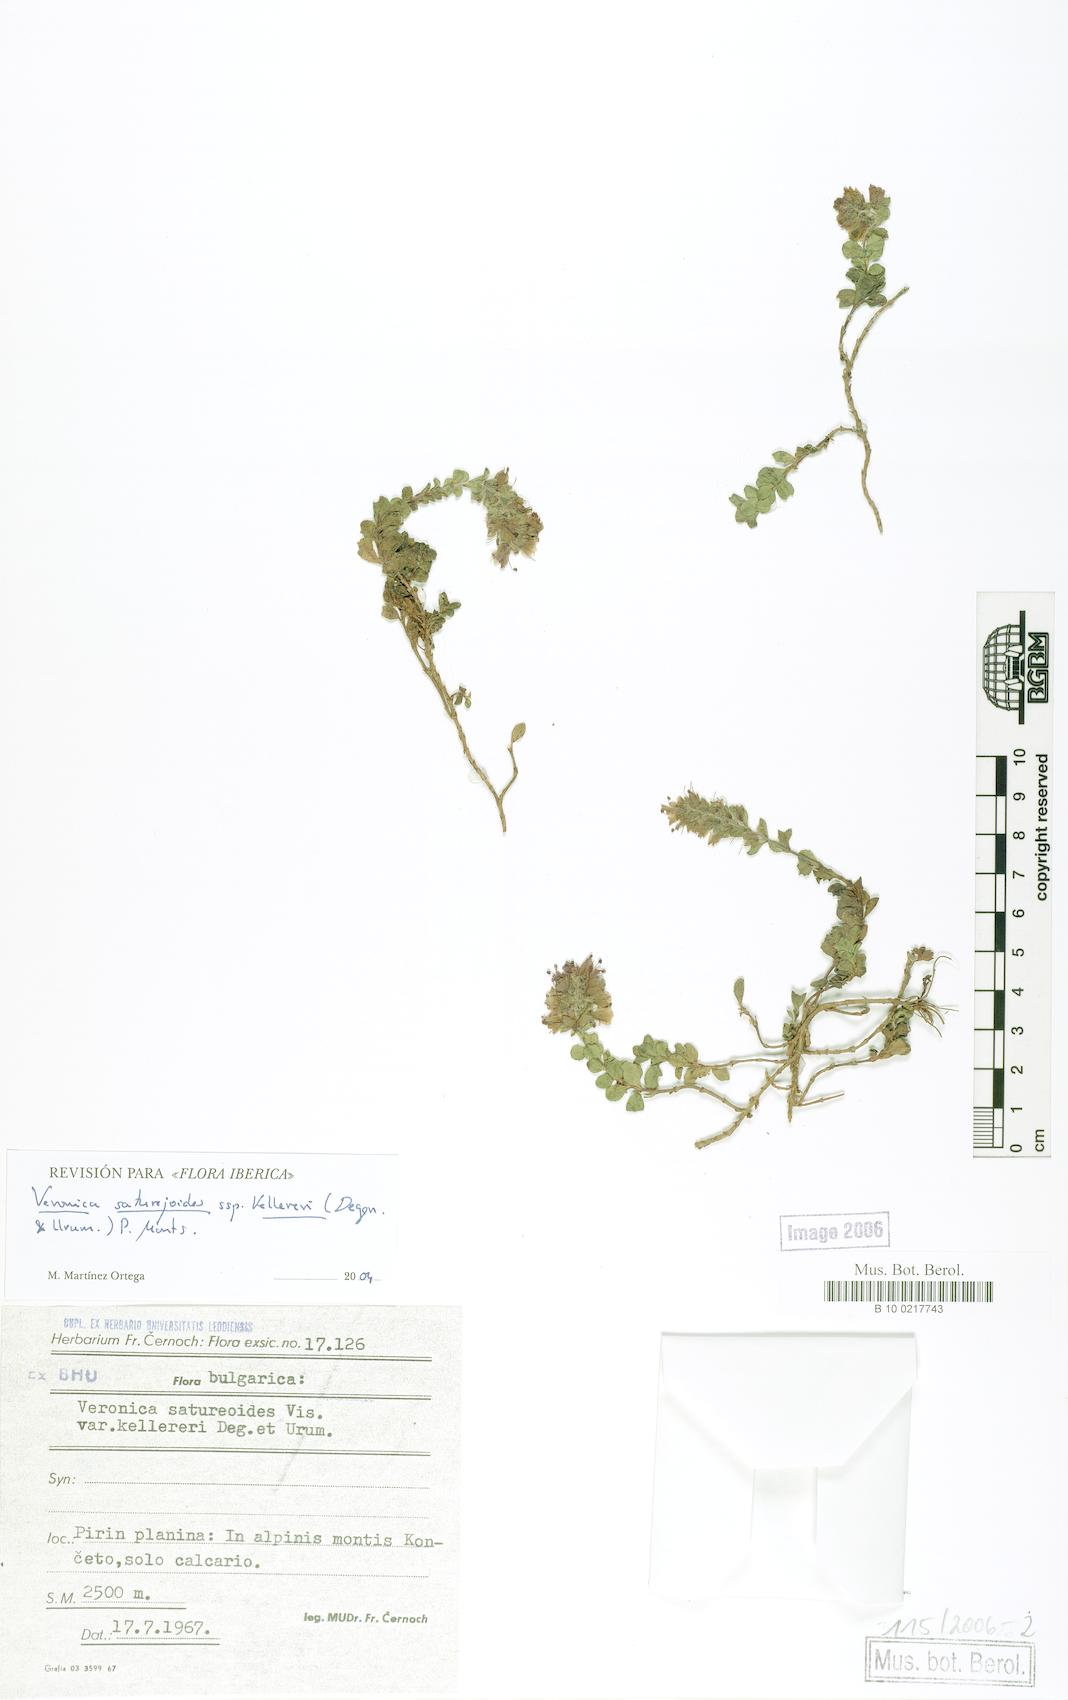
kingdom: Plantae
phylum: Tracheophyta
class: Magnoliopsida
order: Lamiales
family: Plantaginaceae
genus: Veronica
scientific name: Veronica saturejoides
